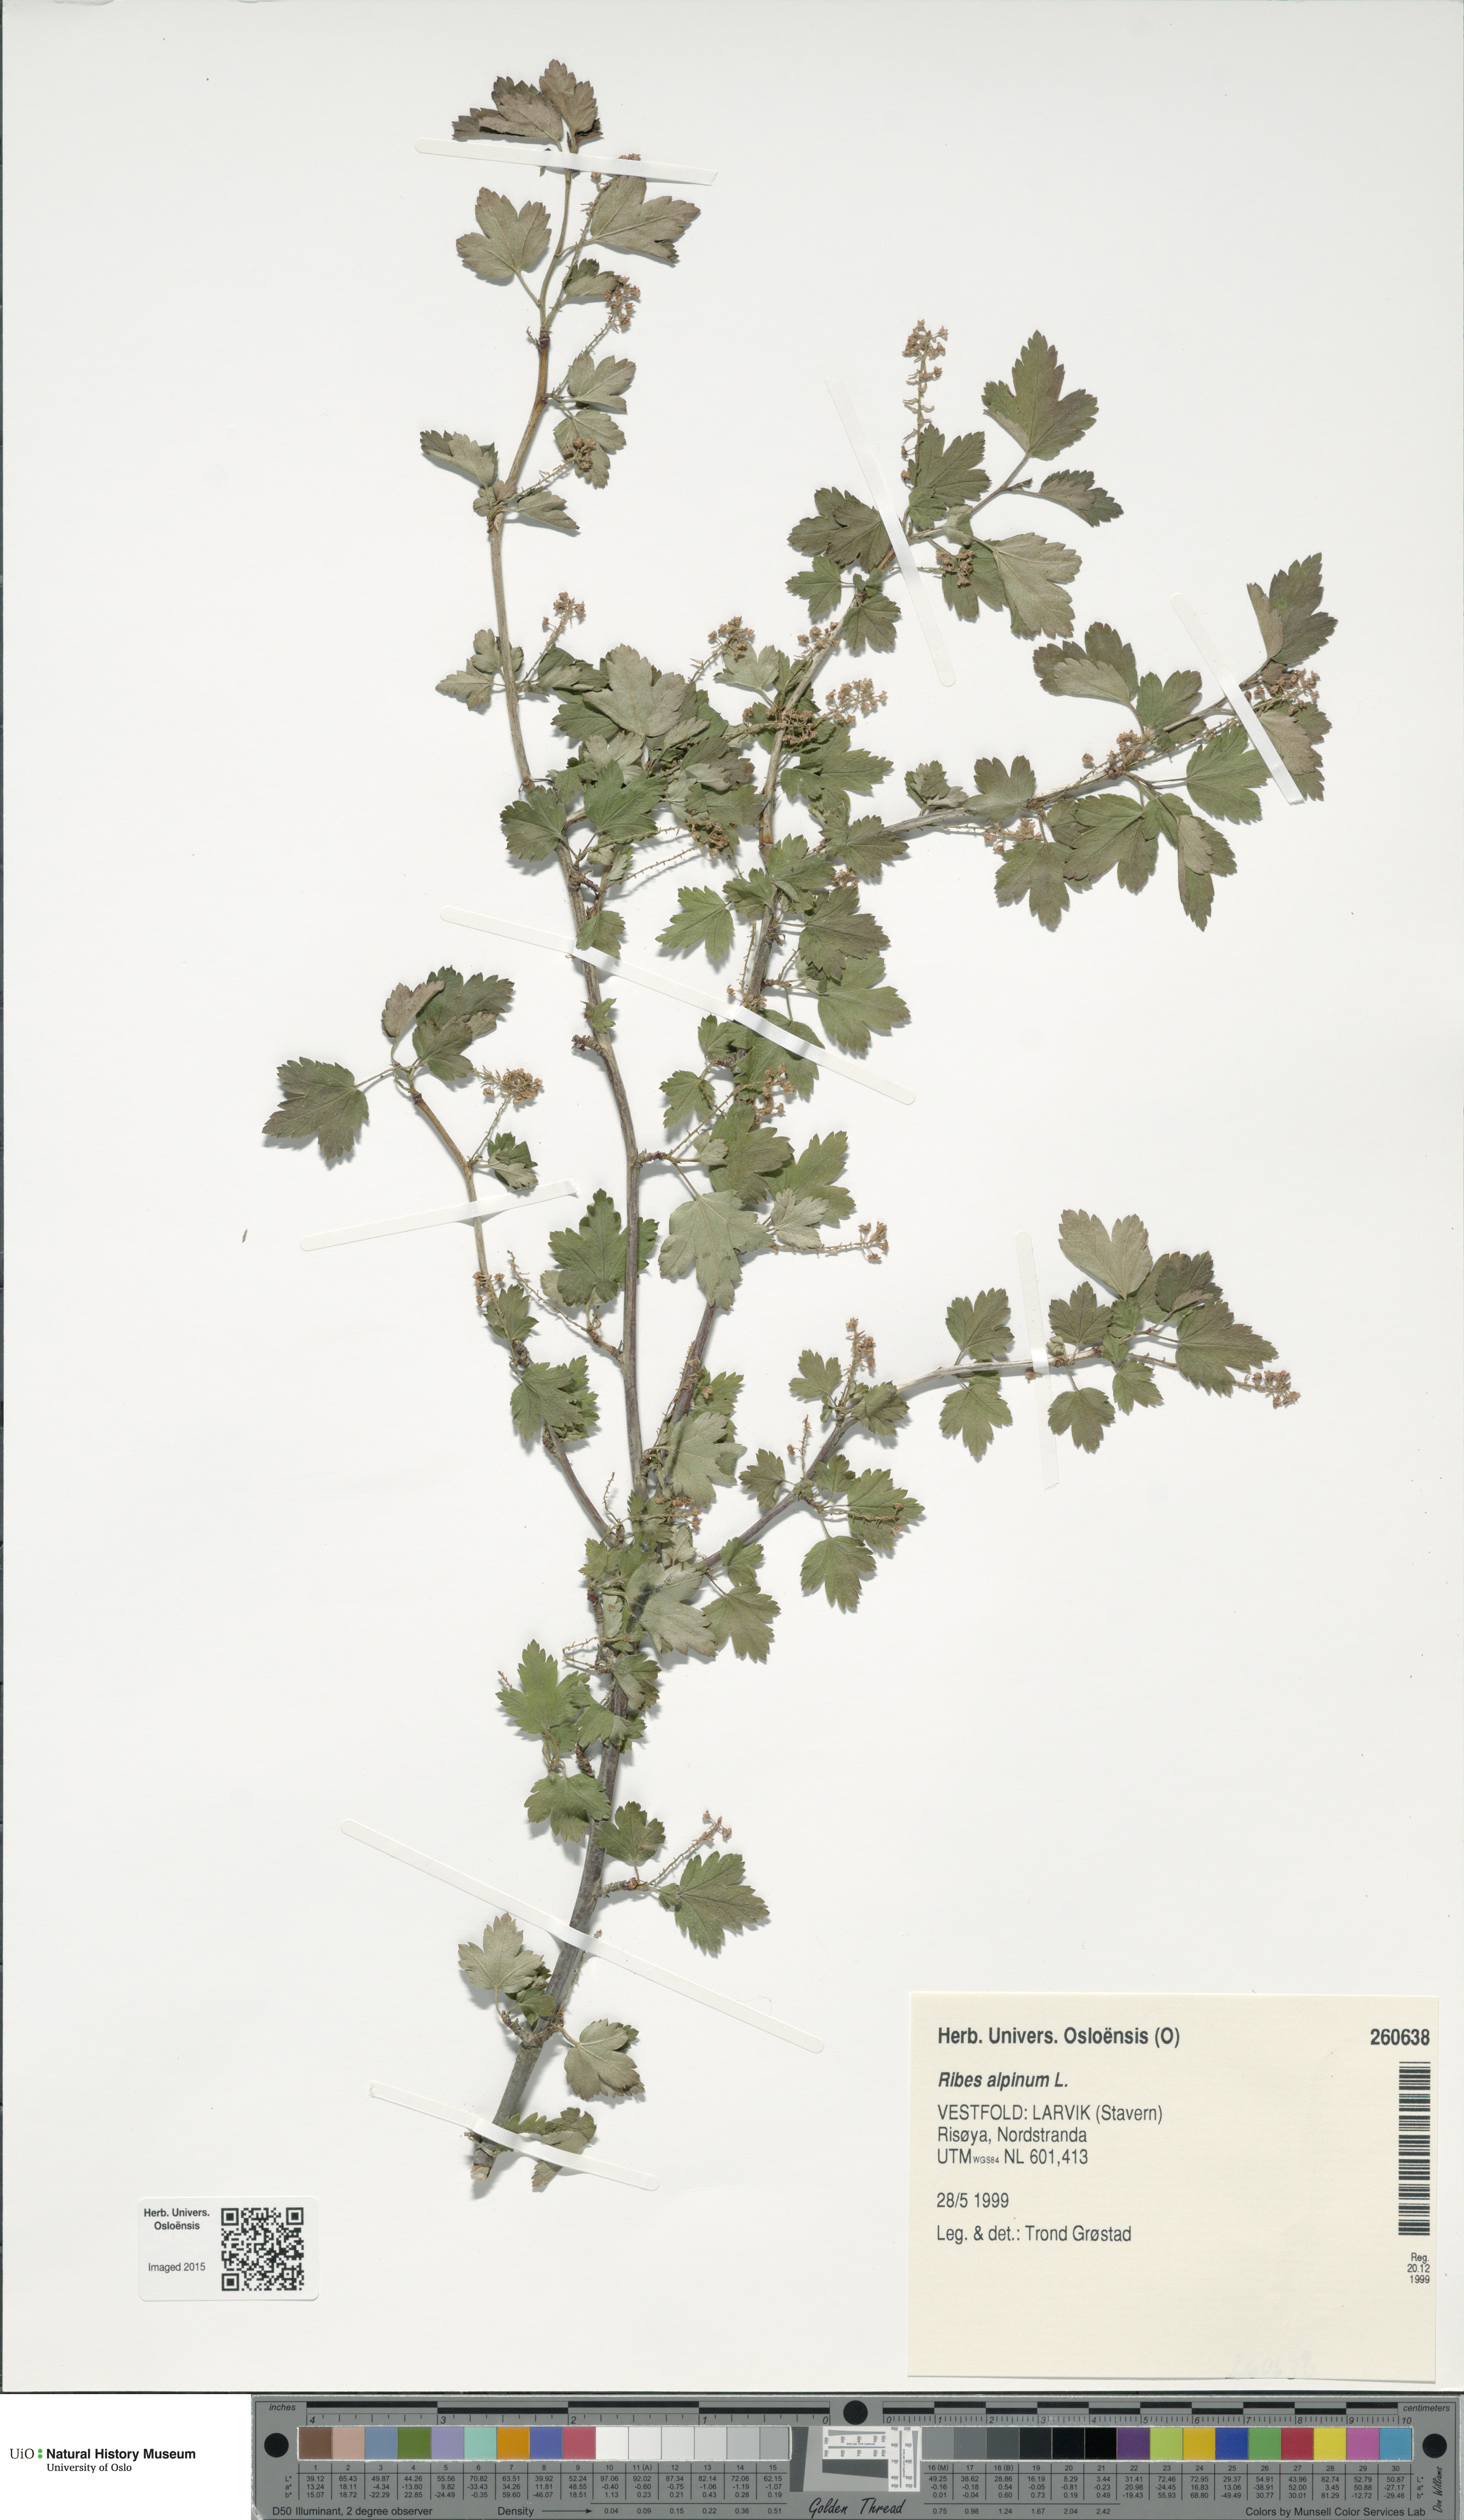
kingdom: Plantae
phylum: Tracheophyta
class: Magnoliopsida
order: Saxifragales
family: Grossulariaceae
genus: Ribes
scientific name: Ribes alpinum
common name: Alpine currant
